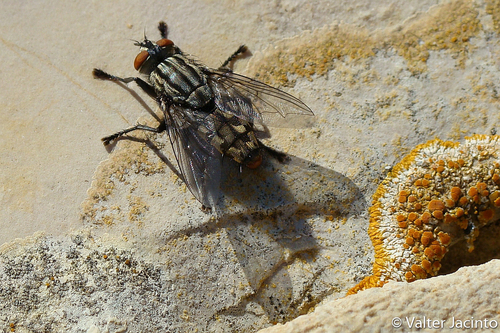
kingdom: Animalia
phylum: Arthropoda
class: Insecta
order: Diptera
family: Sarcophagidae
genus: Sarcophaga
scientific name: Sarcophaga
